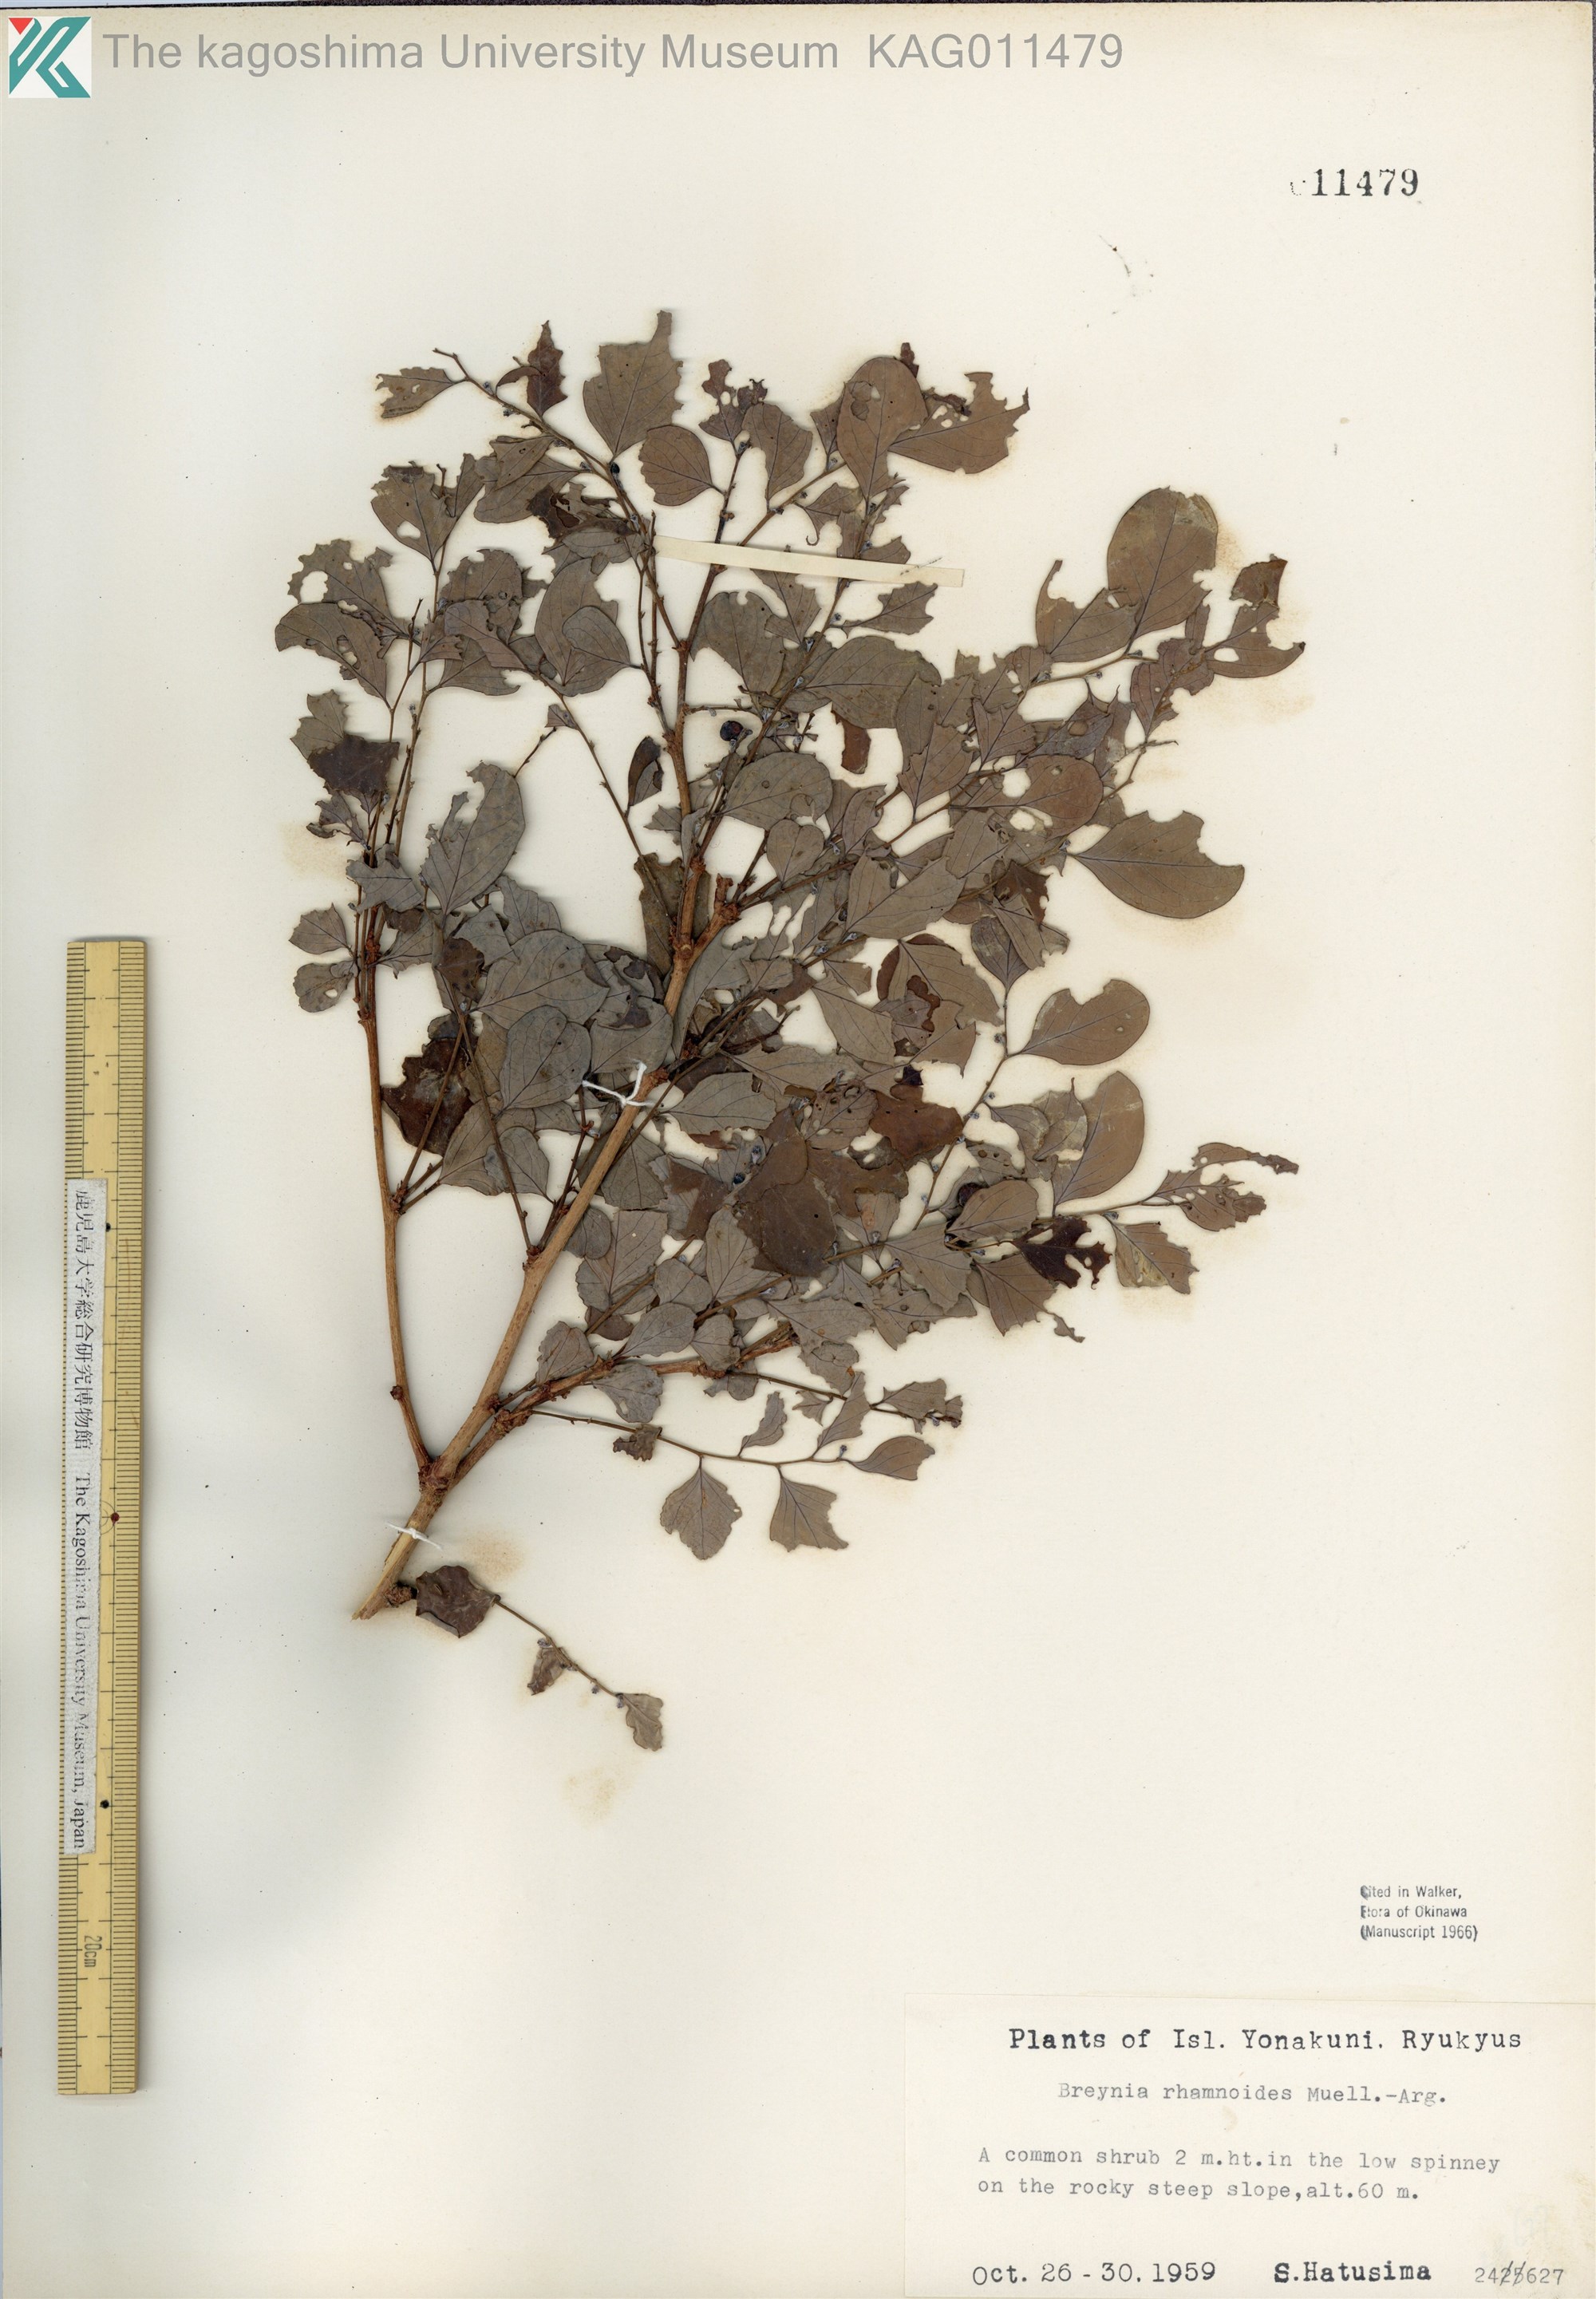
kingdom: Plantae
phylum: Tracheophyta
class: Magnoliopsida
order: Malpighiales
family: Phyllanthaceae
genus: Breynia
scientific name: Breynia vitis-idaea
